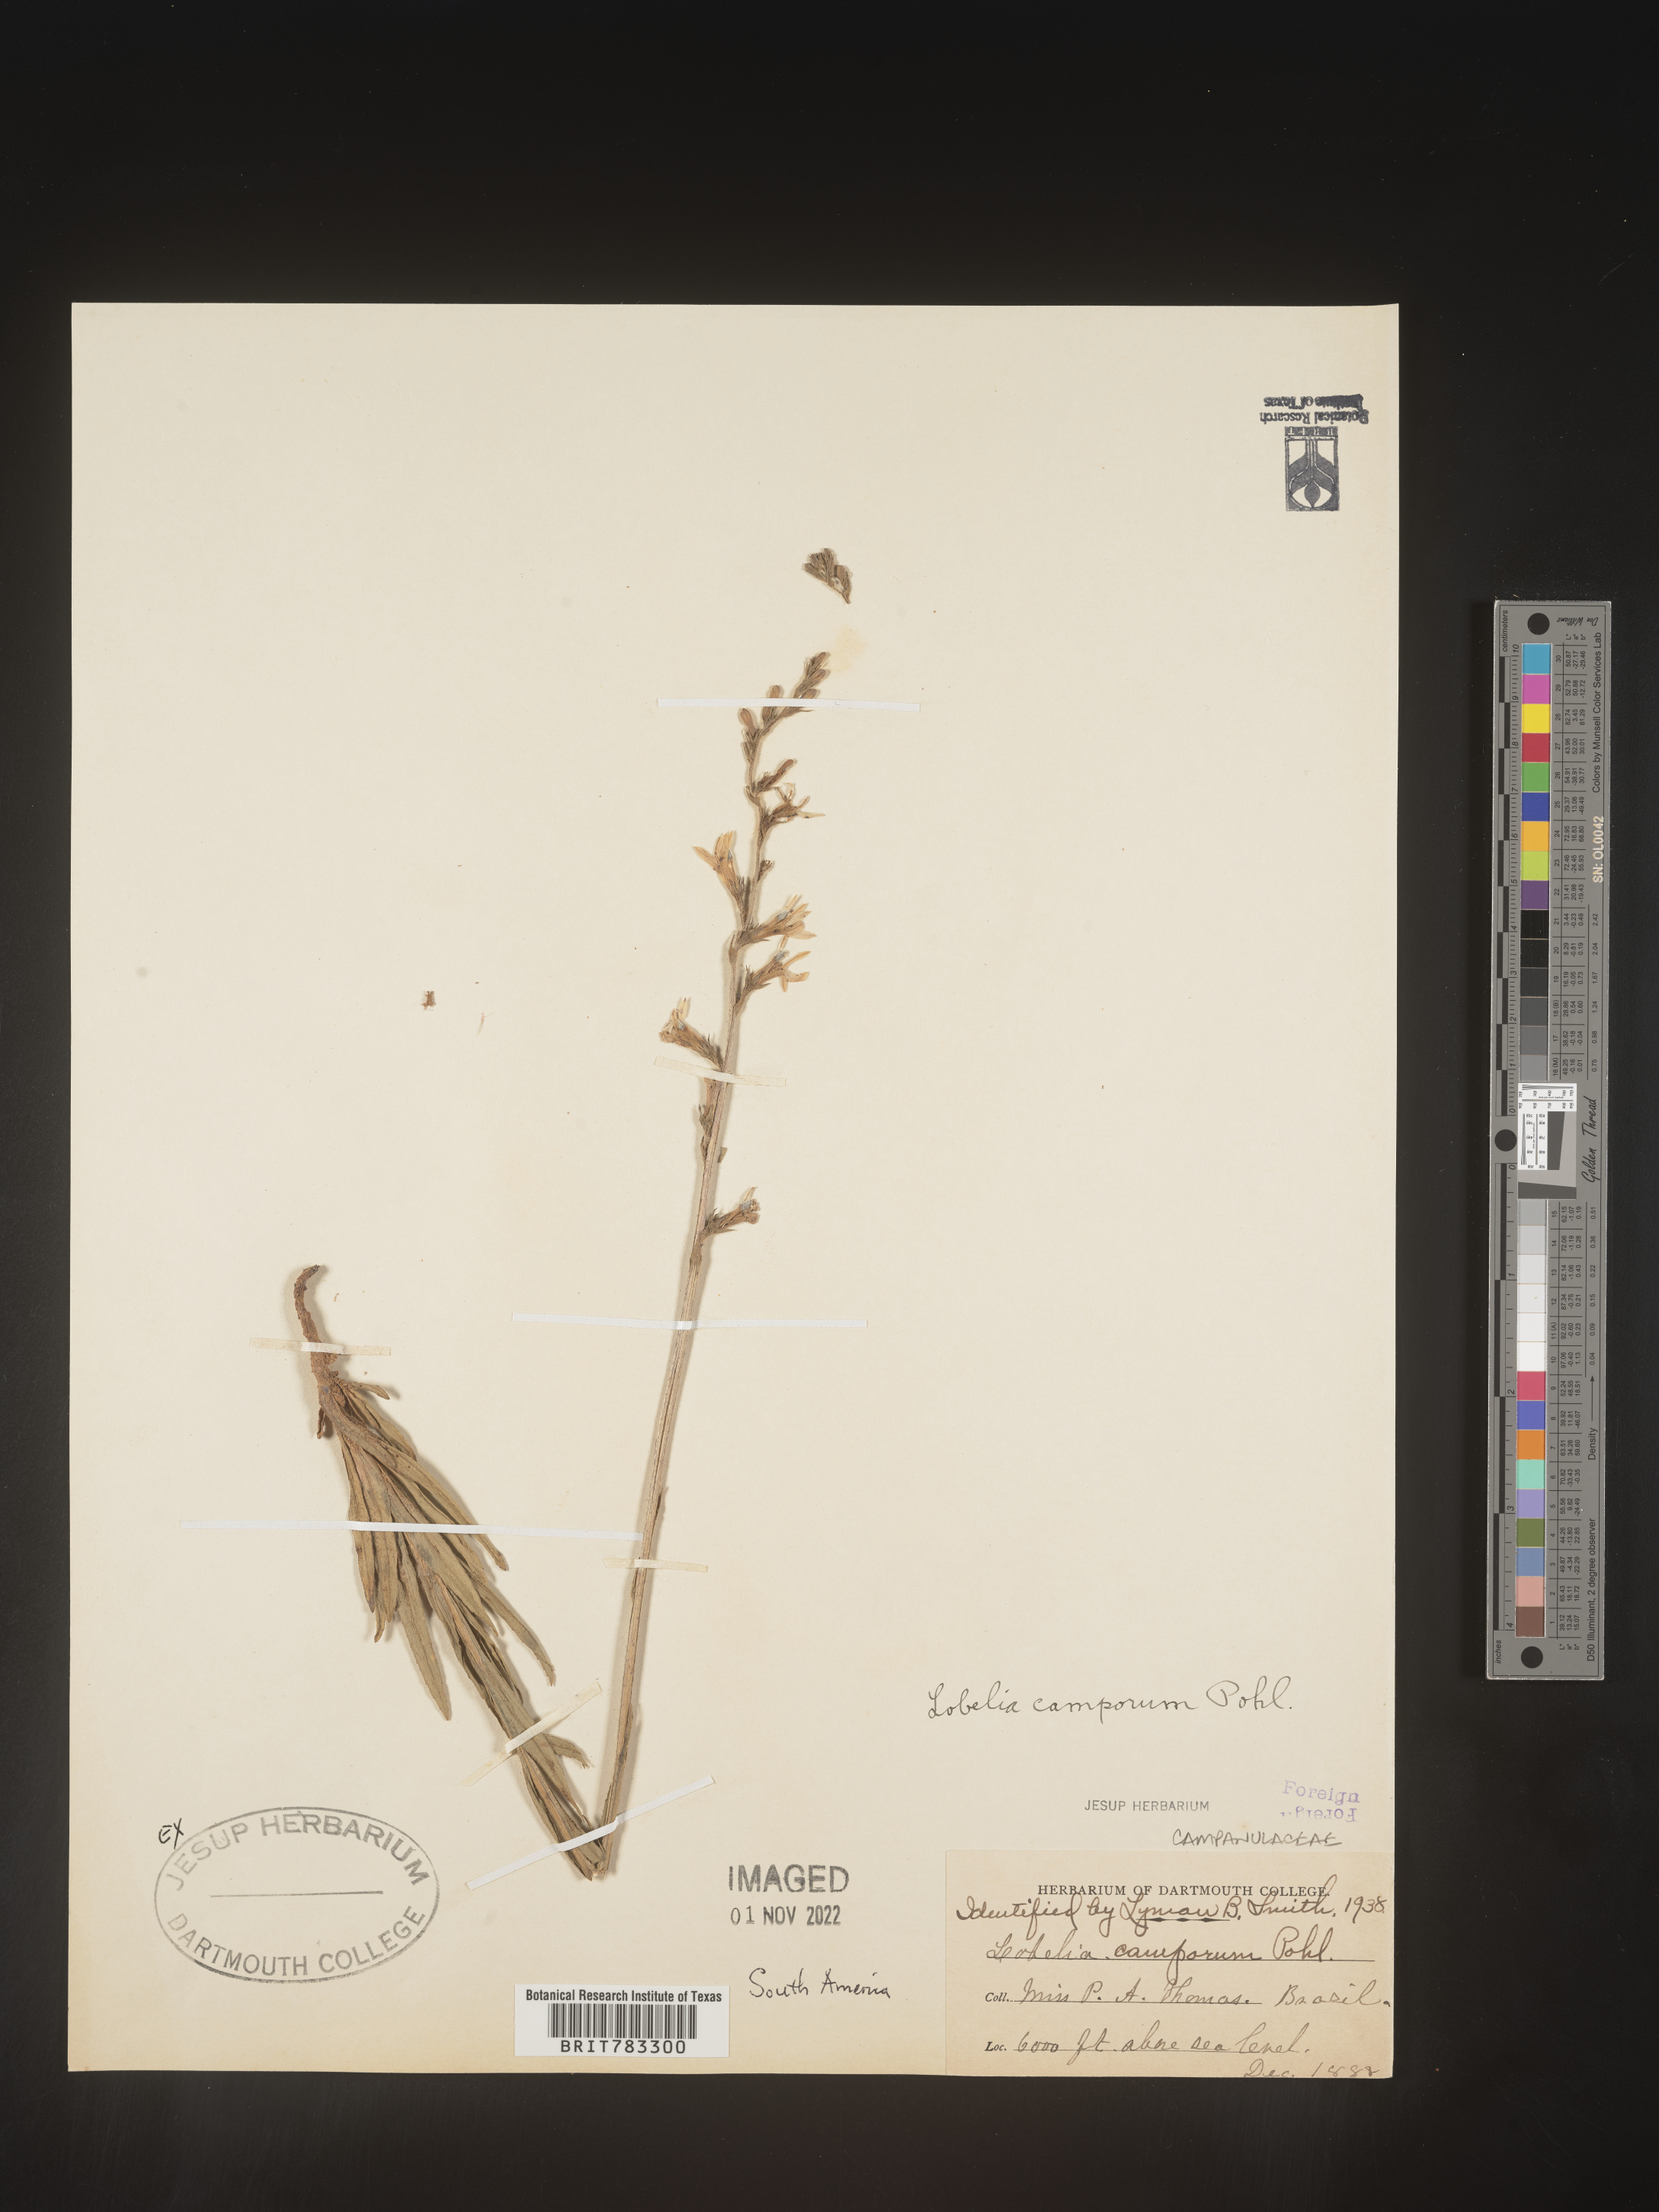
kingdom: Plantae
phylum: Tracheophyta
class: Magnoliopsida
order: Asterales
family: Campanulaceae
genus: Lobelia
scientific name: Lobelia
